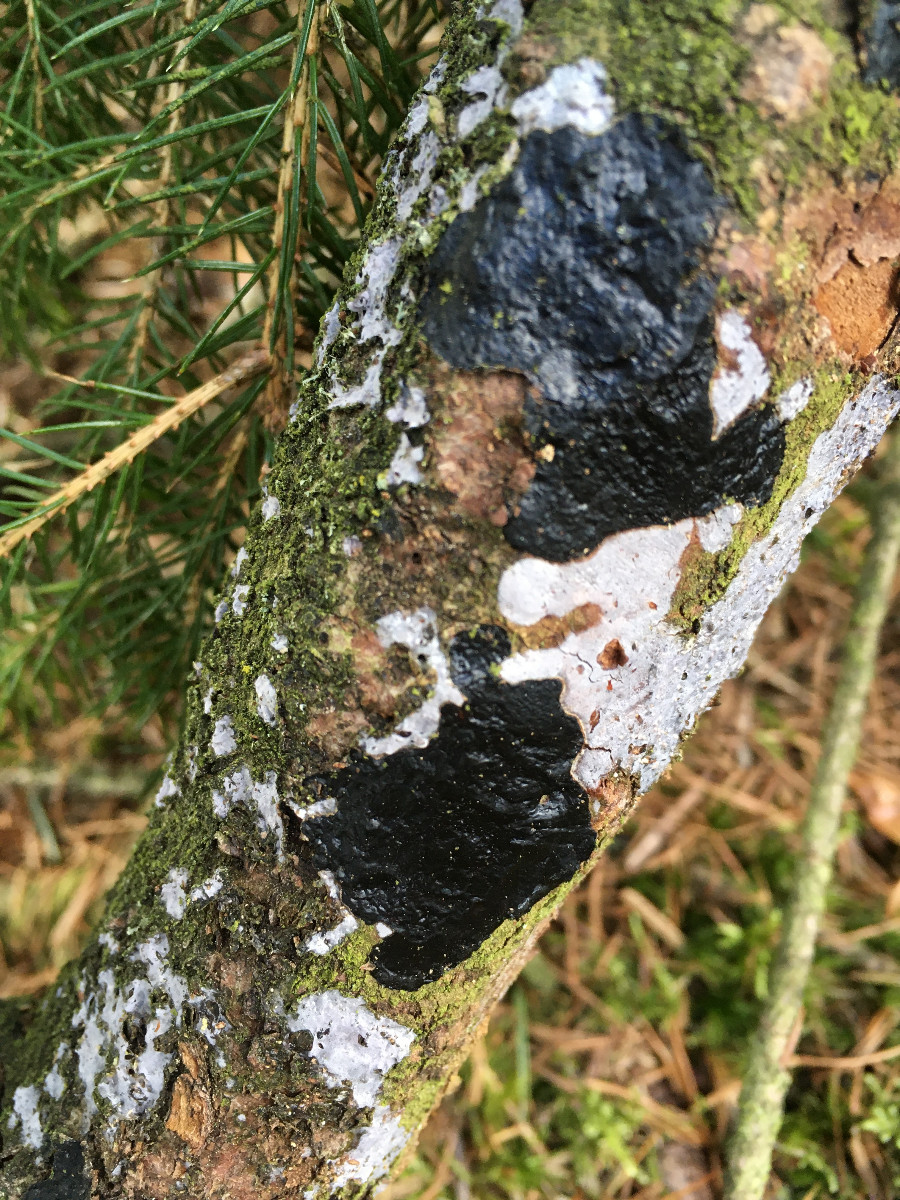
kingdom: Fungi
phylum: Basidiomycota
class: Agaricomycetes
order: Auriculariales
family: Auriculariaceae
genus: Exidia
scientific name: Exidia pithya
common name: gran-bævretop
